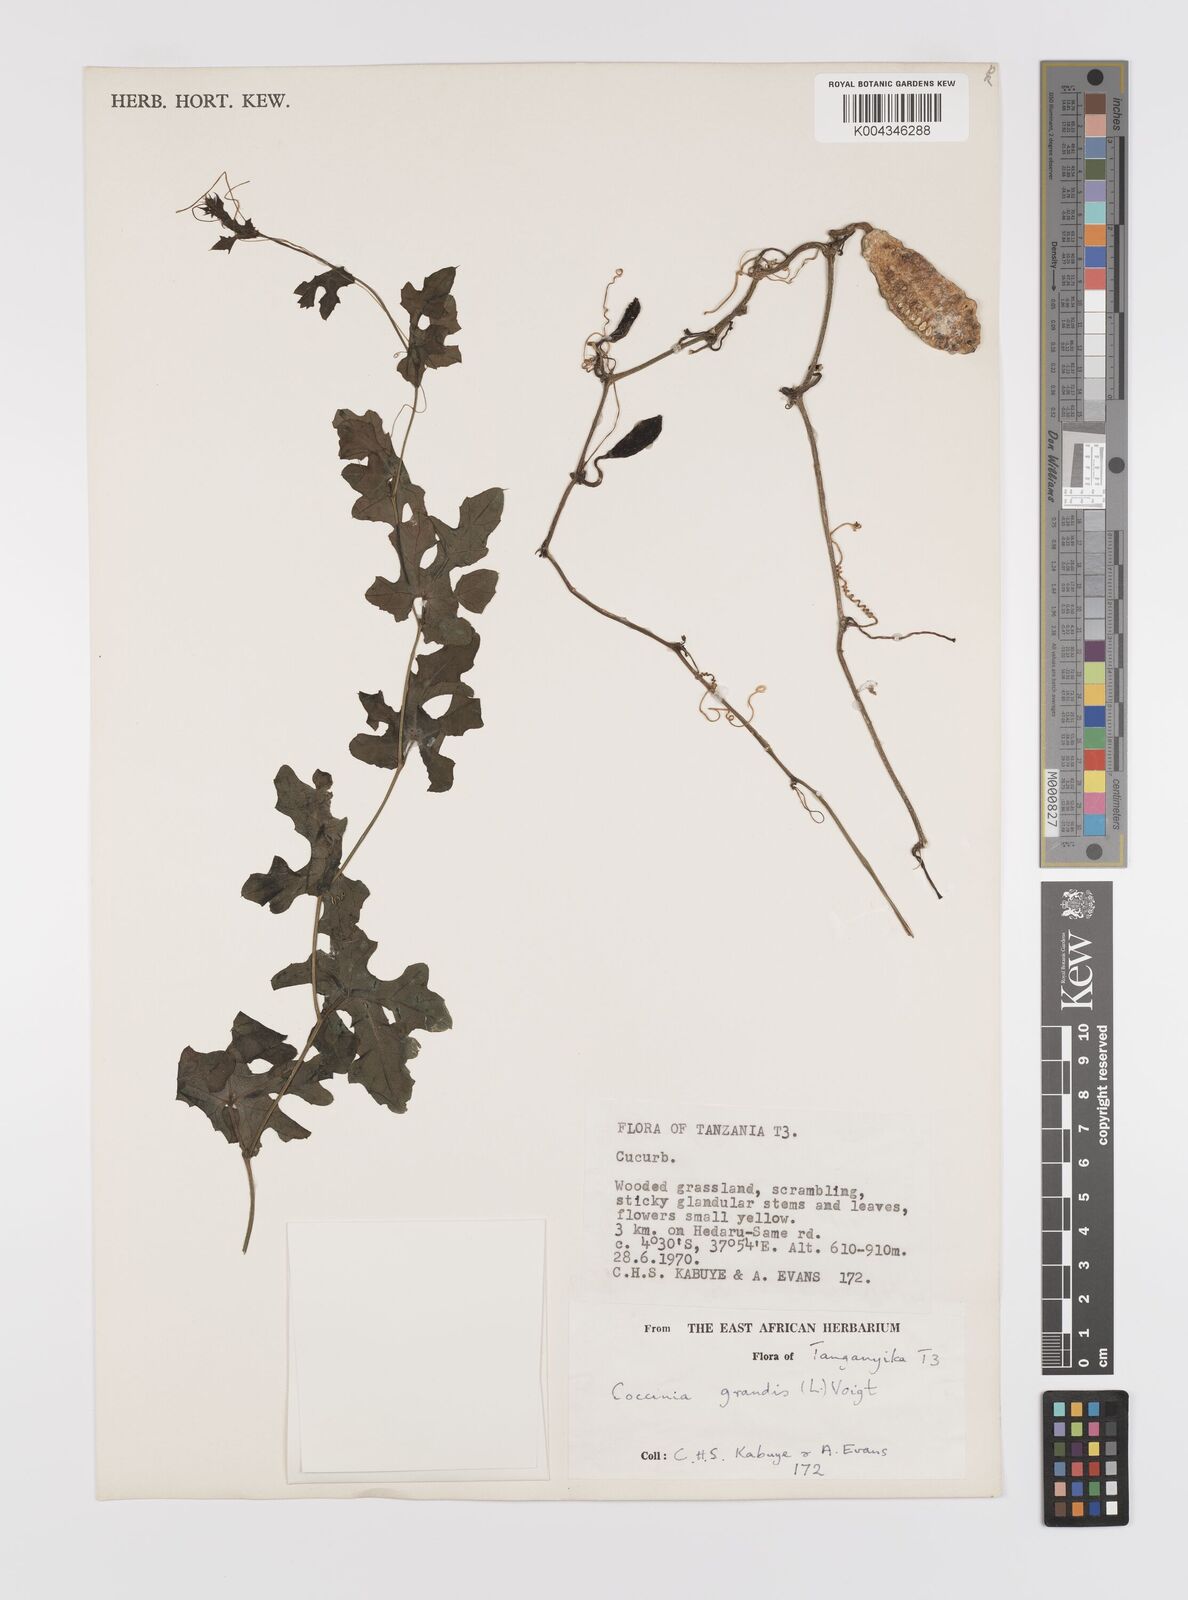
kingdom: Plantae
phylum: Tracheophyta
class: Magnoliopsida
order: Cucurbitales
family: Cucurbitaceae
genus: Coccinia
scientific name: Coccinia grandis
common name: Ivy gourd
